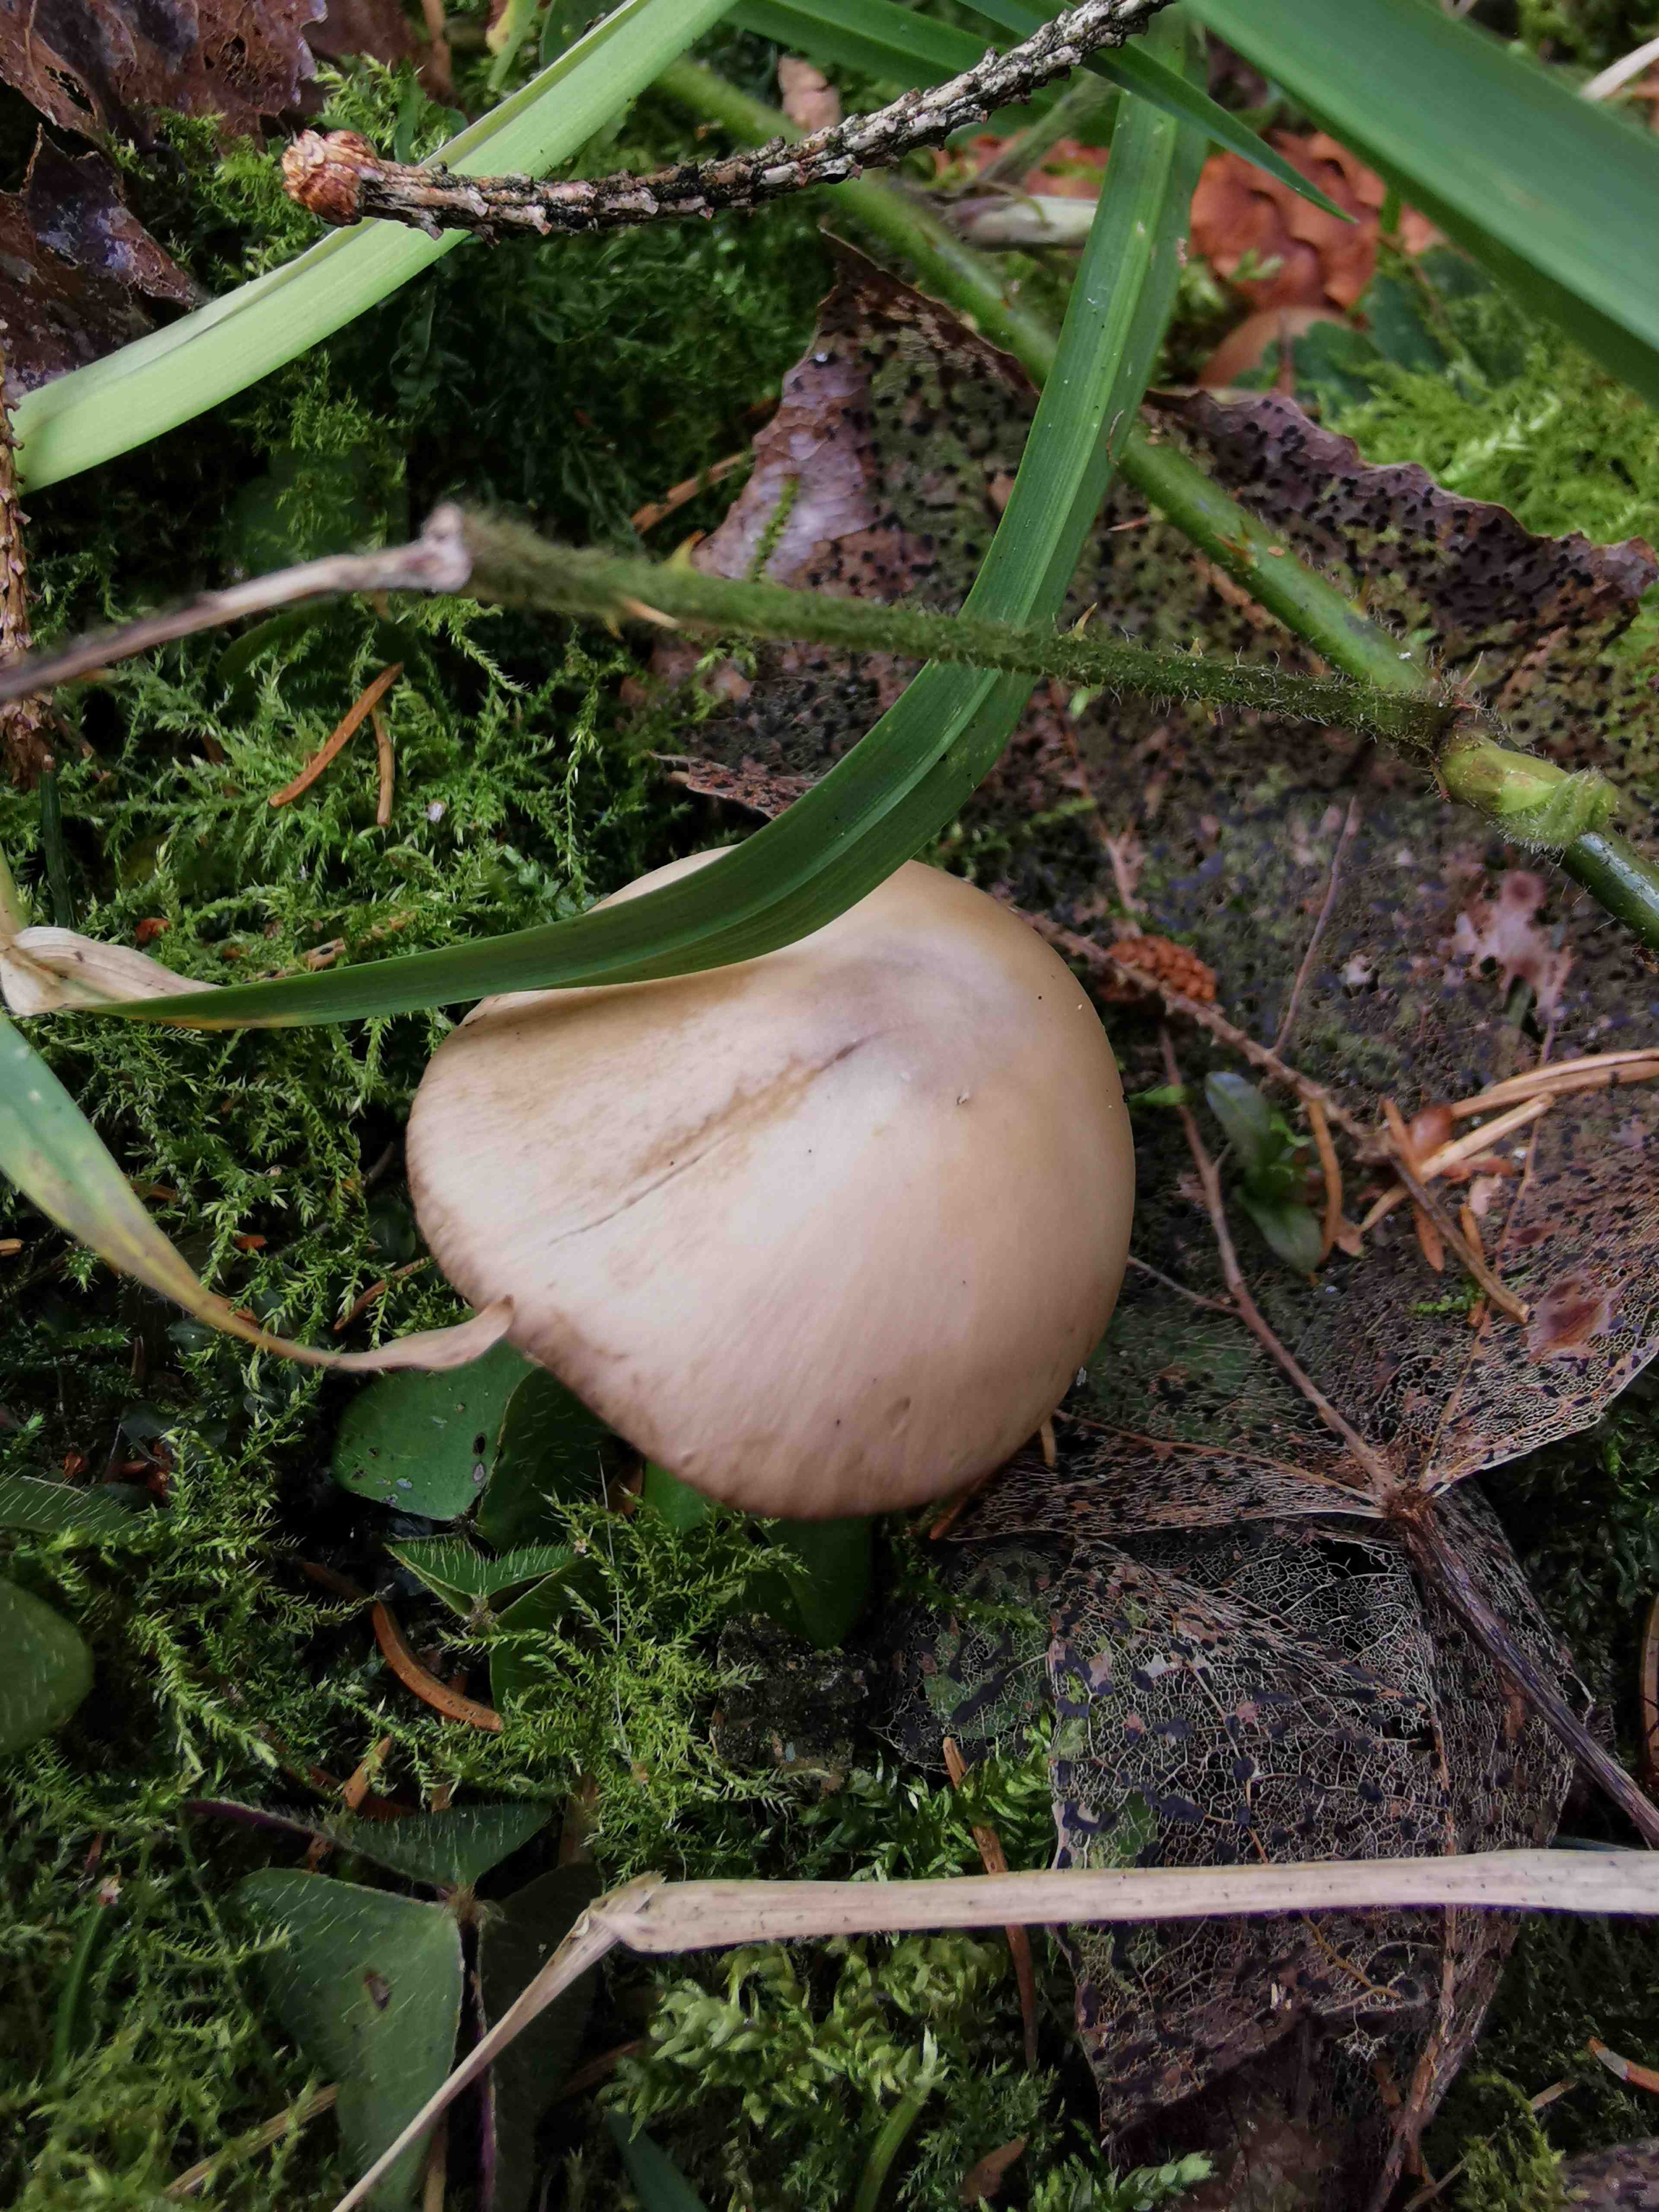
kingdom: Fungi
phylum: Basidiomycota
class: Agaricomycetes
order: Agaricales
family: Psathyrellaceae
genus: Psathyrella
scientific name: Psathyrella spadiceogrisea
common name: gråbrun mørkhat
